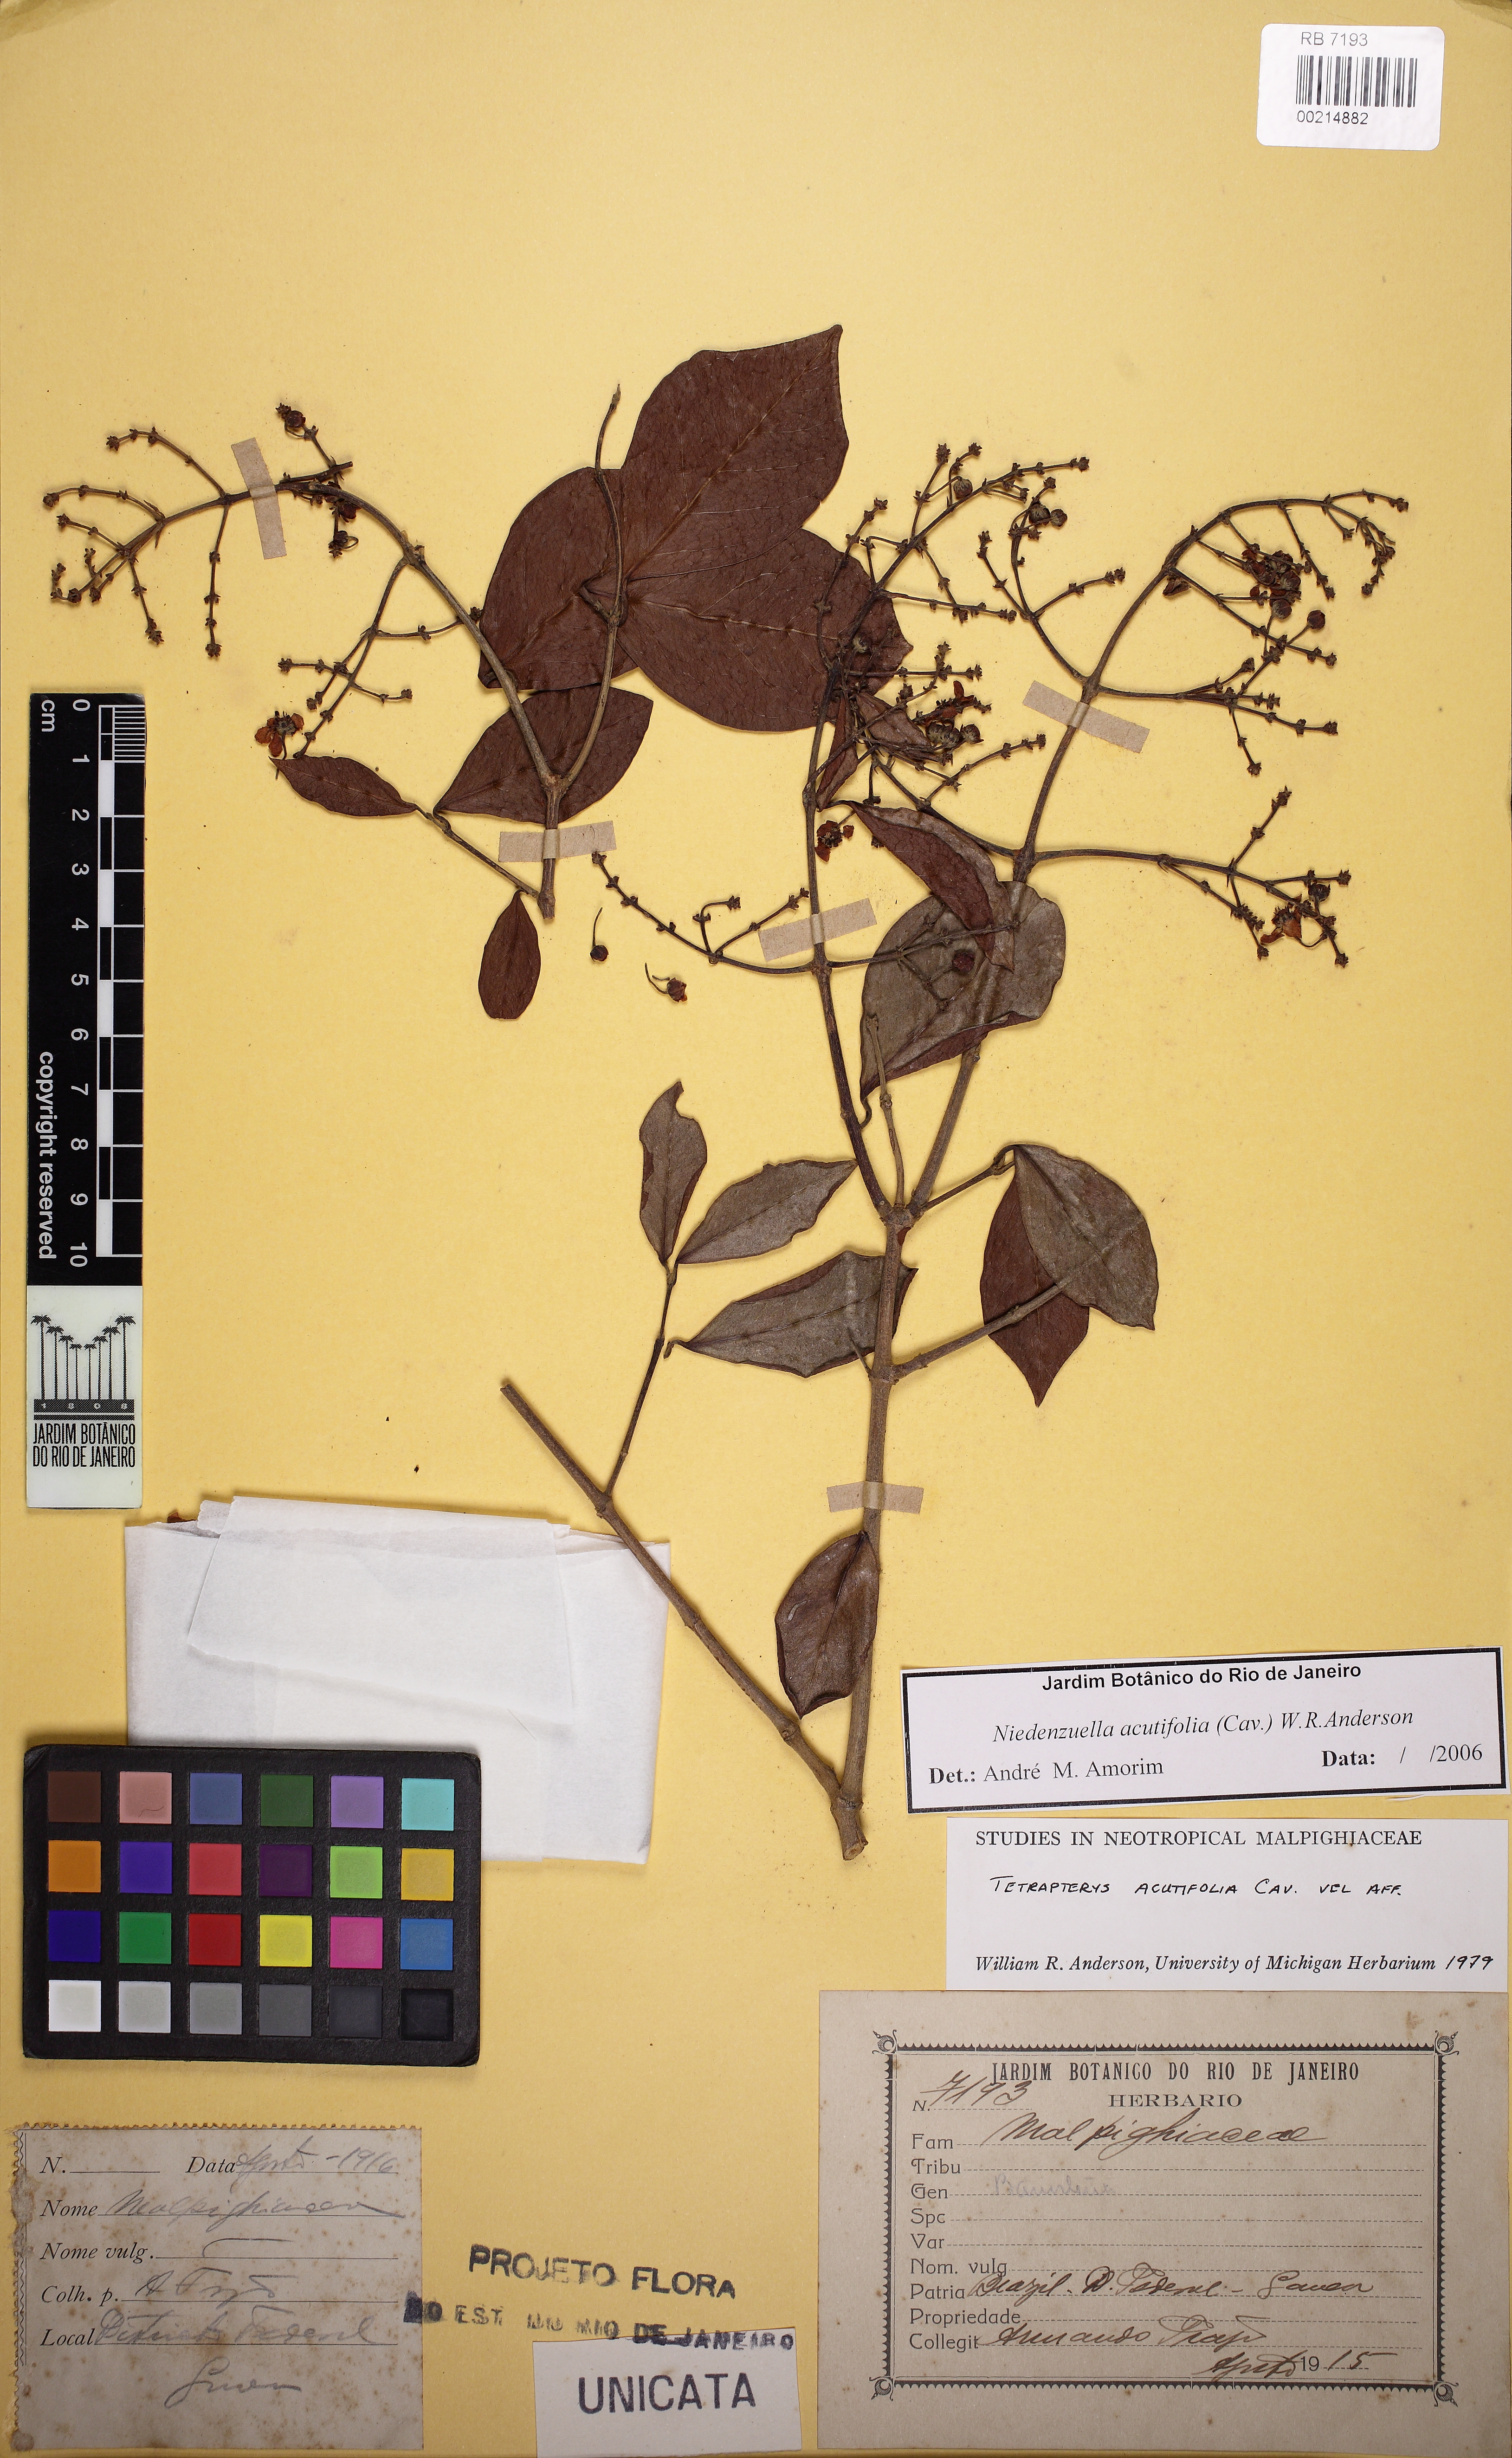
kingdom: Plantae
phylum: Tracheophyta
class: Magnoliopsida
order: Malpighiales
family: Malpighiaceae
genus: Niedenzuella
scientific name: Niedenzuella acutifolia
